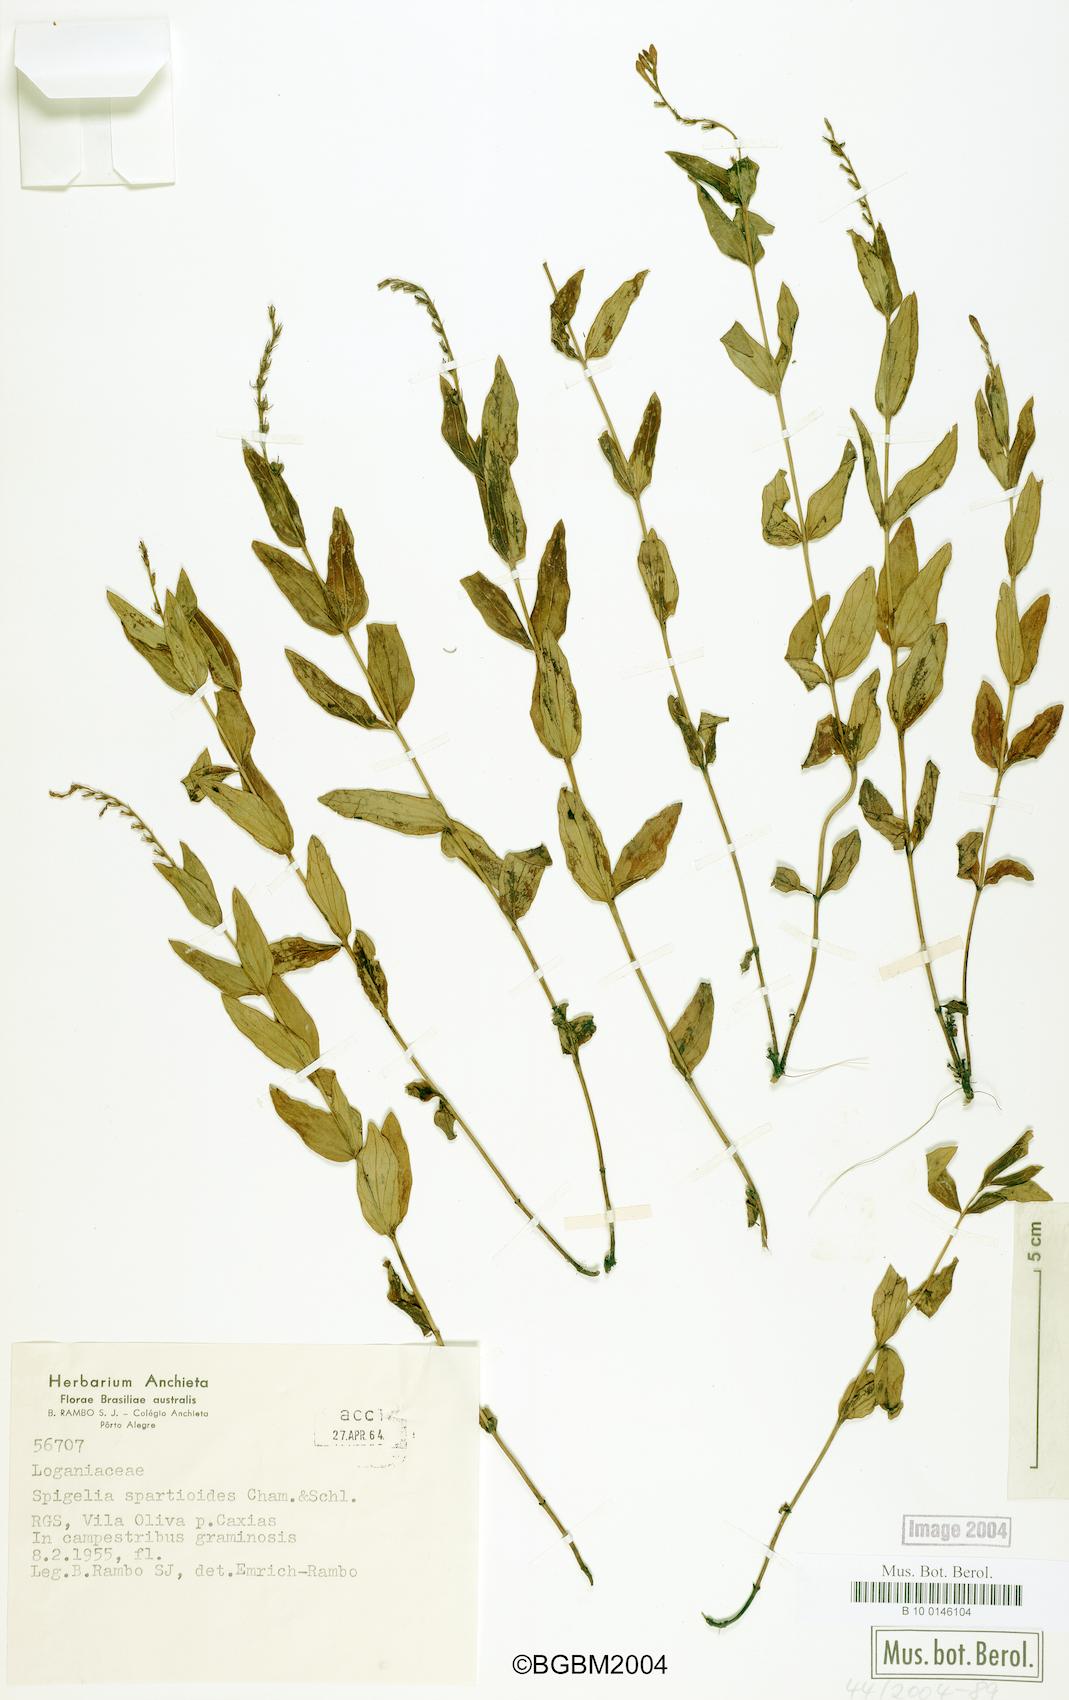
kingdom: Plantae
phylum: Tracheophyta
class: Magnoliopsida
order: Gentianales
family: Loganiaceae
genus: Spigelia
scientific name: Spigelia spartioides
